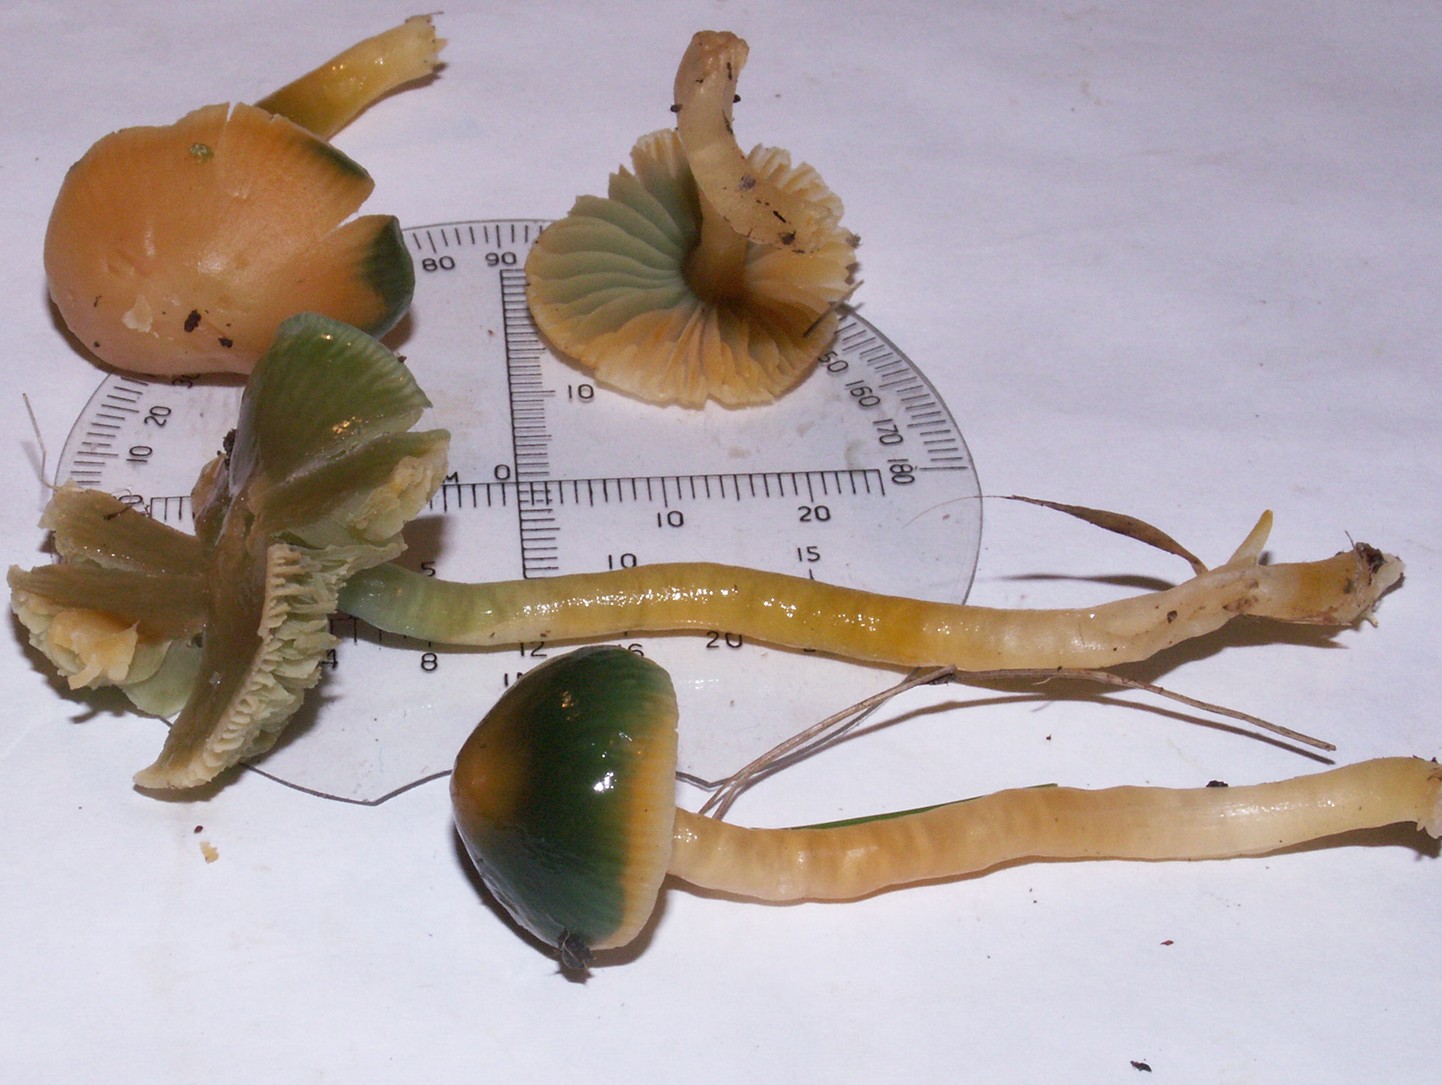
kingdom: Fungi
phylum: Basidiomycota
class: Agaricomycetes
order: Agaricales
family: Hygrophoraceae
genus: Gliophorus
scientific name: Gliophorus psittacinus
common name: papegøje-vokshat
